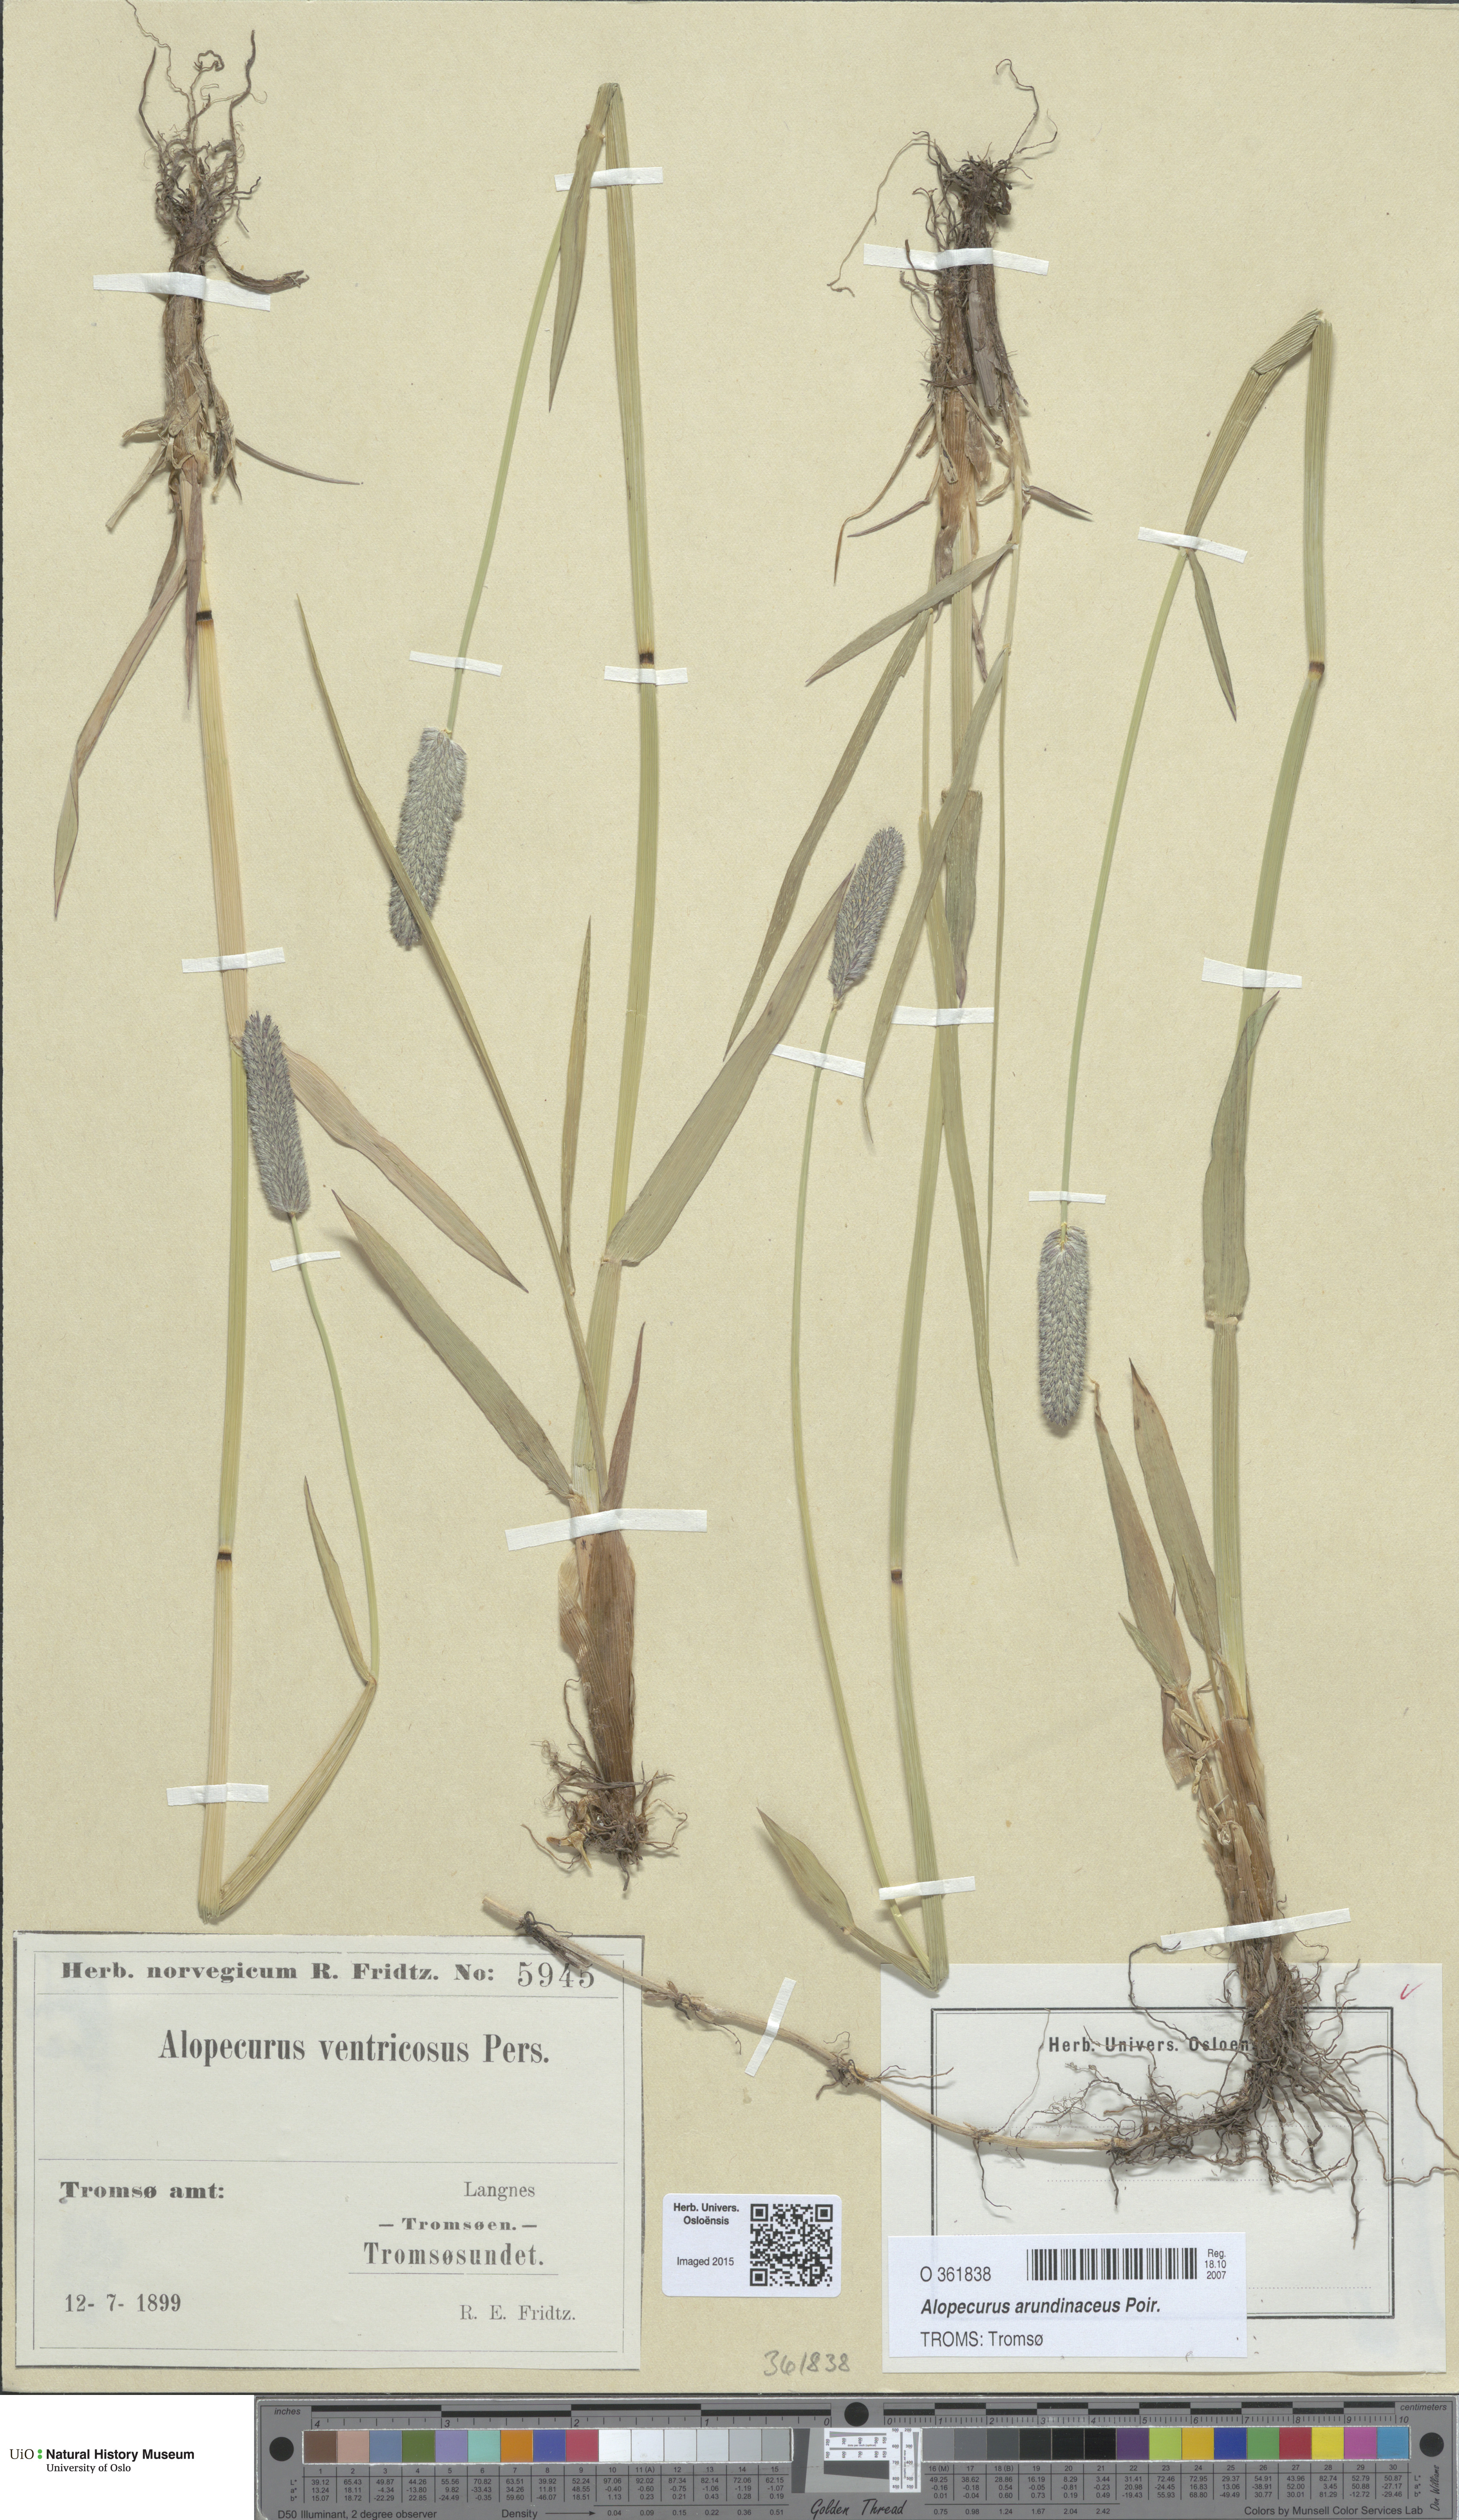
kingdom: Plantae
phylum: Tracheophyta
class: Liliopsida
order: Poales
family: Poaceae
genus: Alopecurus
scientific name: Alopecurus arundinaceus
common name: Creeping meadow foxtail
